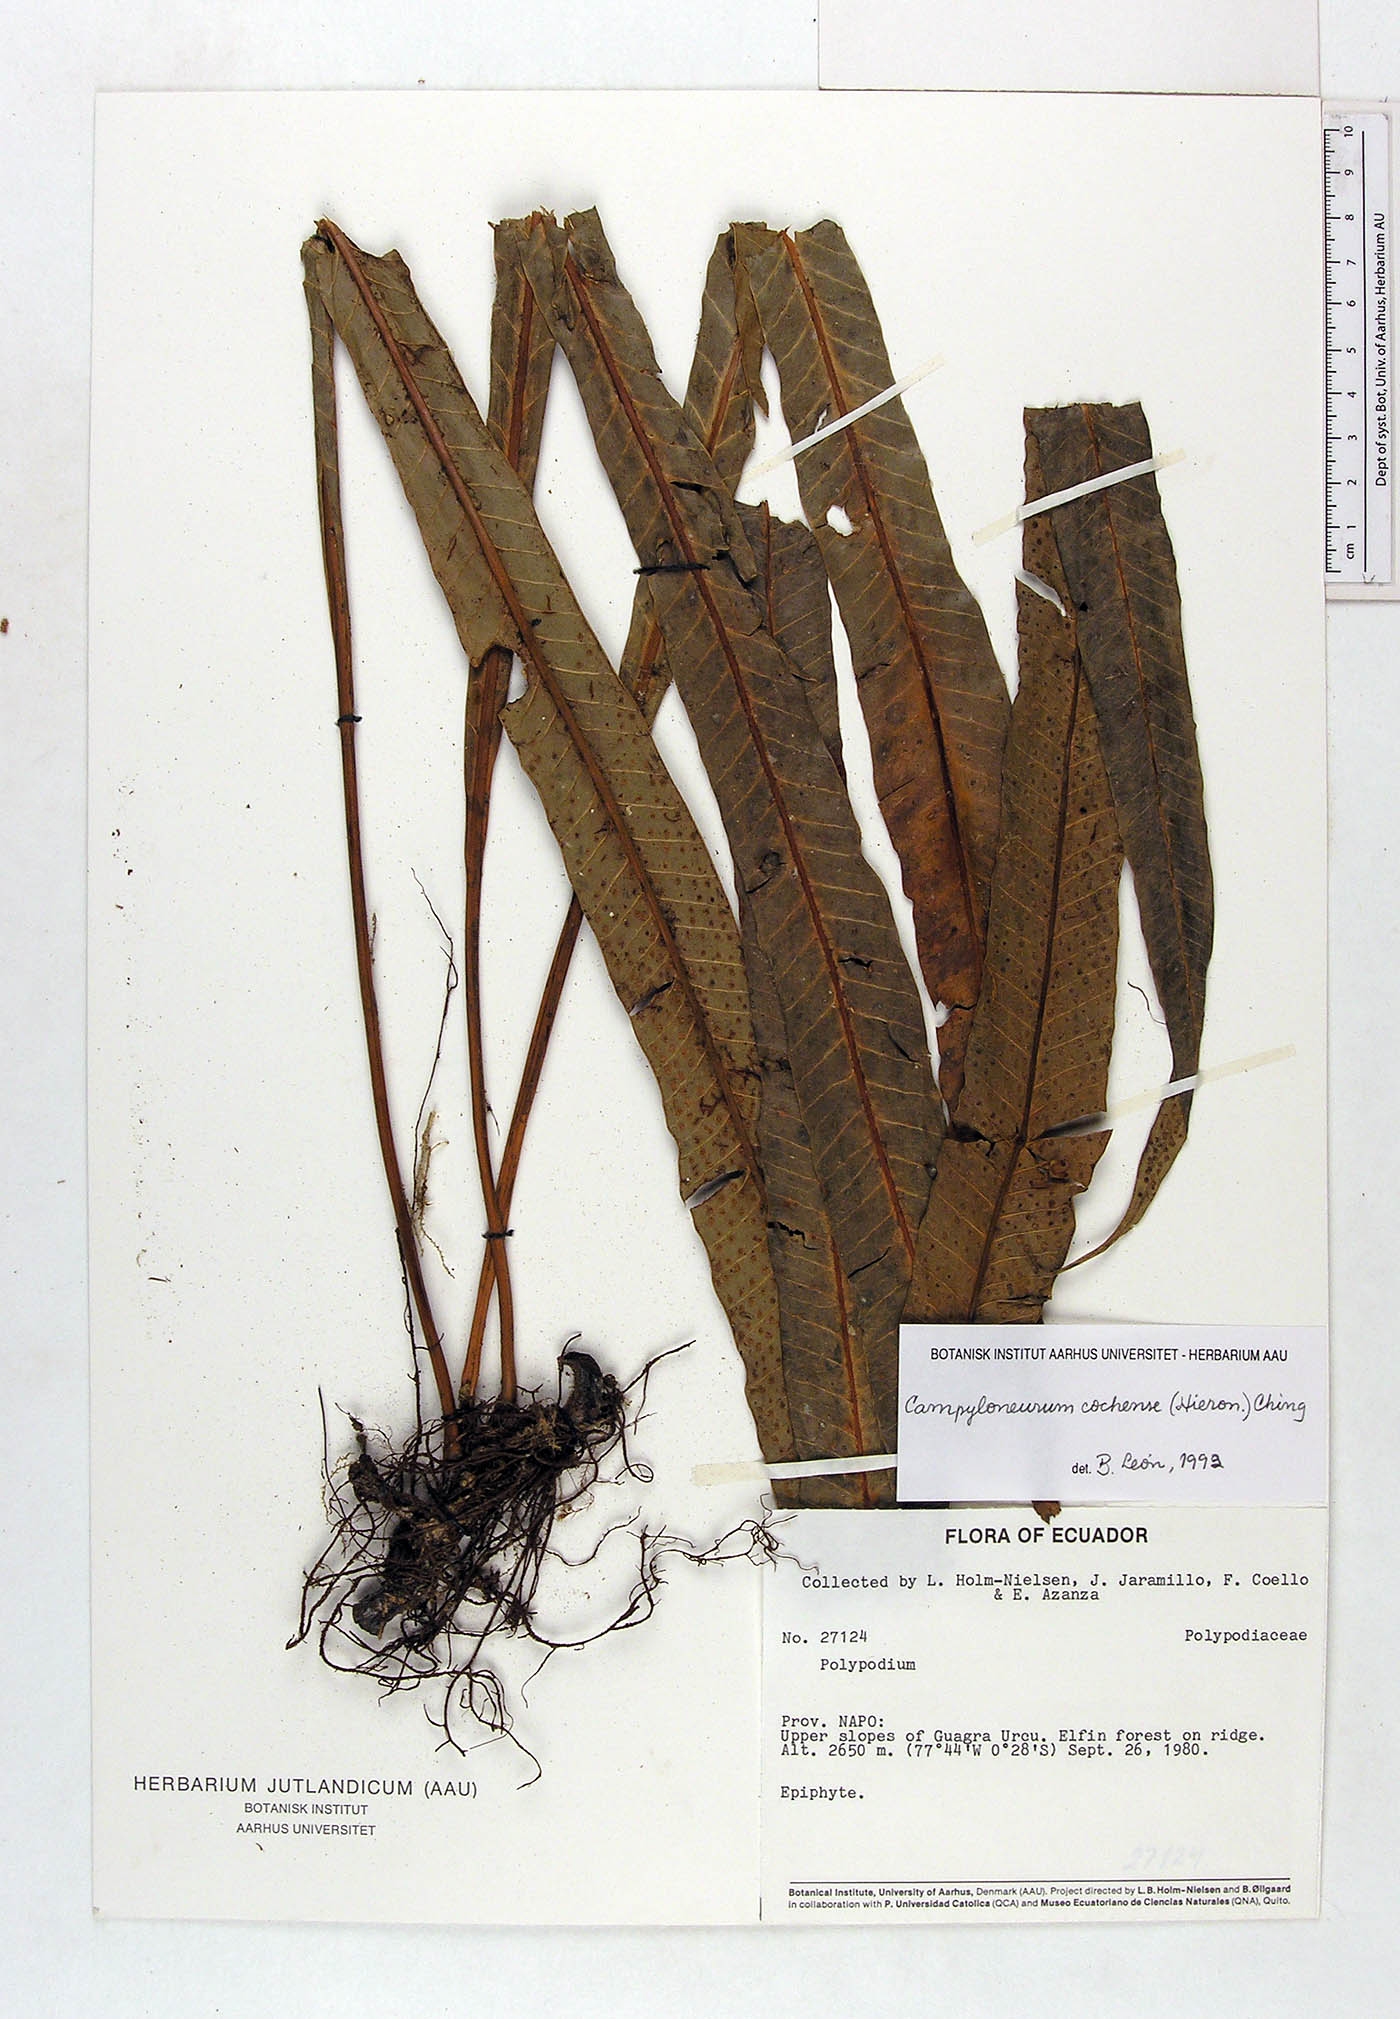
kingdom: Plantae
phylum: Tracheophyta
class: Polypodiopsida
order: Polypodiales
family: Polypodiaceae
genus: Campyloneurum
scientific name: Campyloneurum cochense
